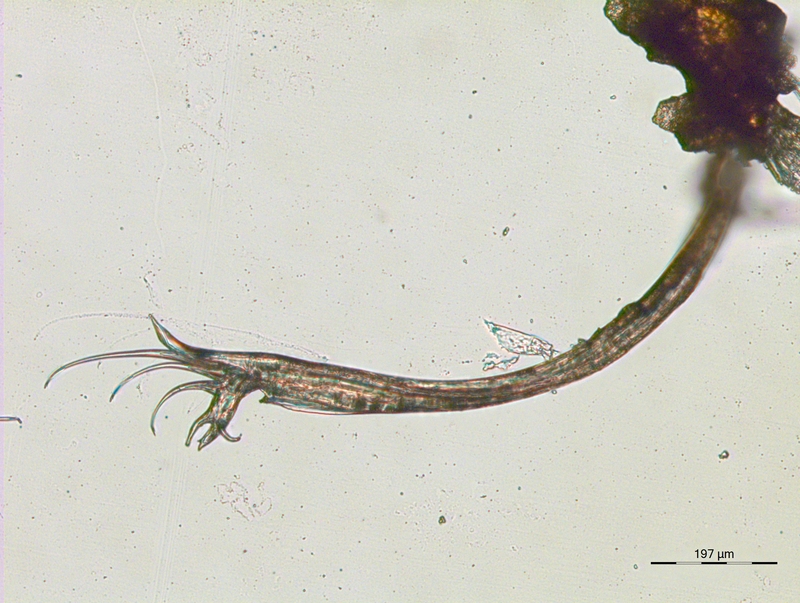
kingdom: Animalia
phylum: Arthropoda
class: Diplopoda
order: Julida
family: Blaniulidae
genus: Blaniulus
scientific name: Blaniulus guttulatus
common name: Spotted snake millipede
